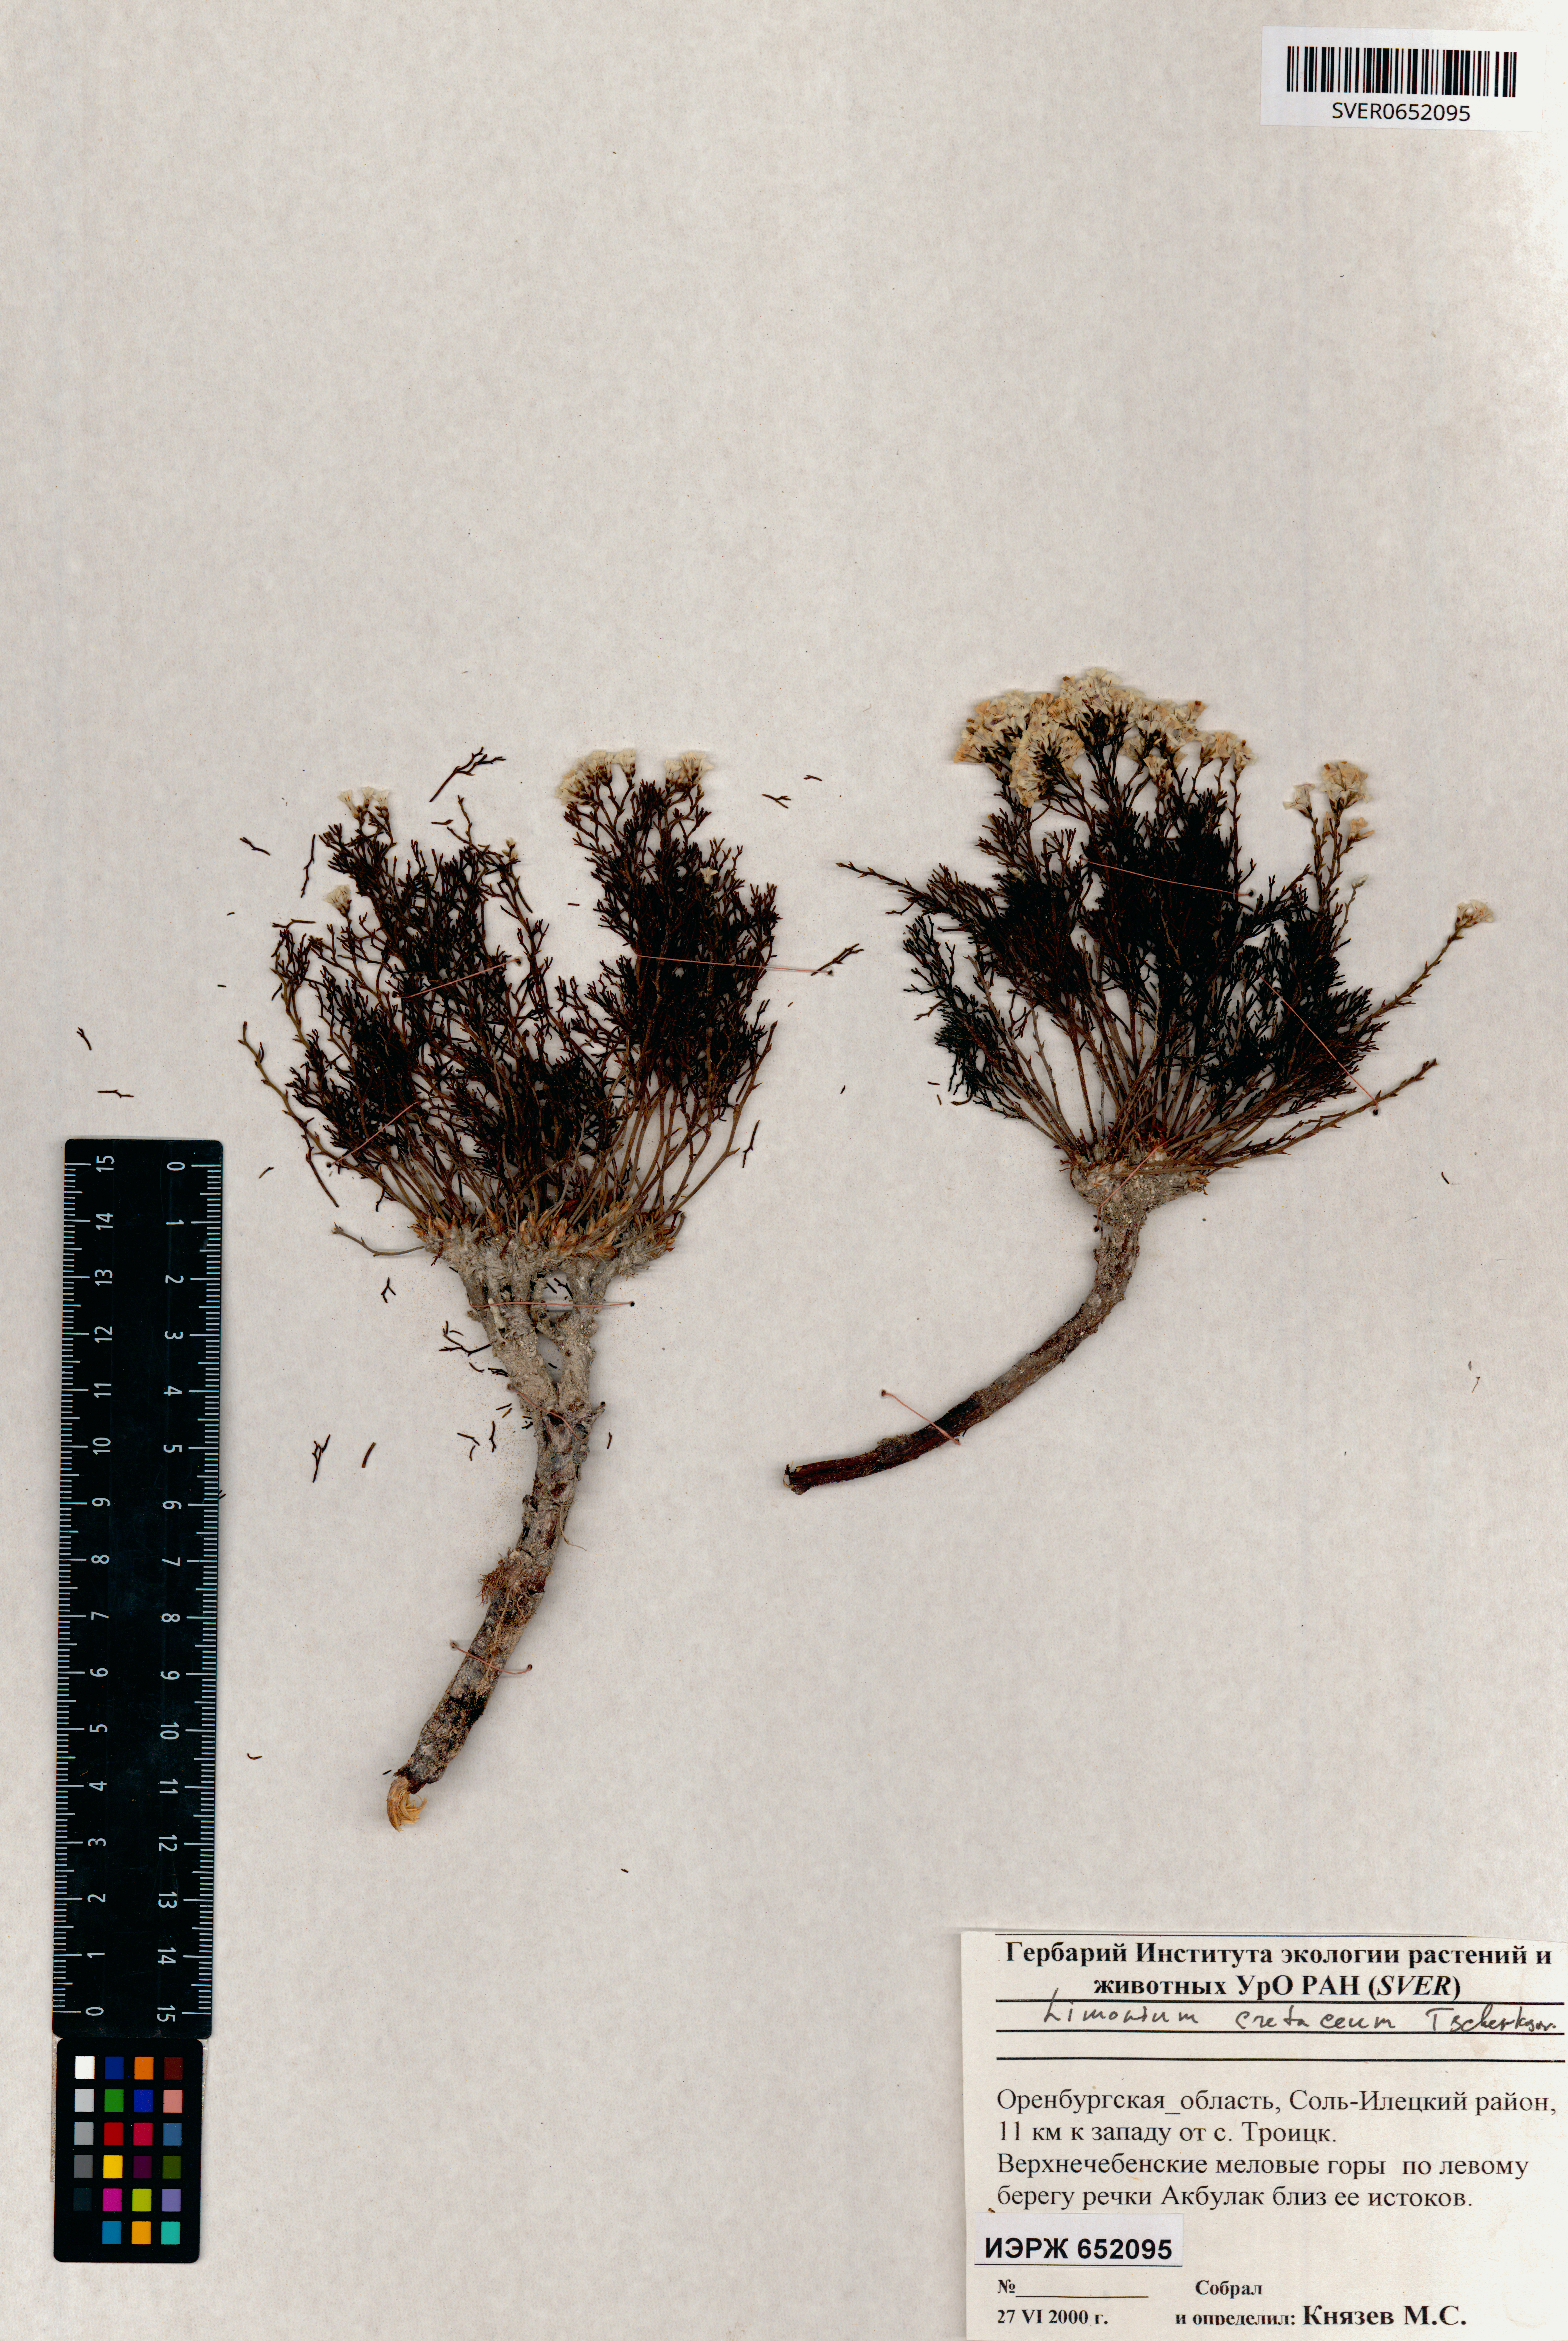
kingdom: Plantae
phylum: Tracheophyta
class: Magnoliopsida
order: Caryophyllales
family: Plumbaginaceae
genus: Limonium
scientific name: Limonium cretaceum
